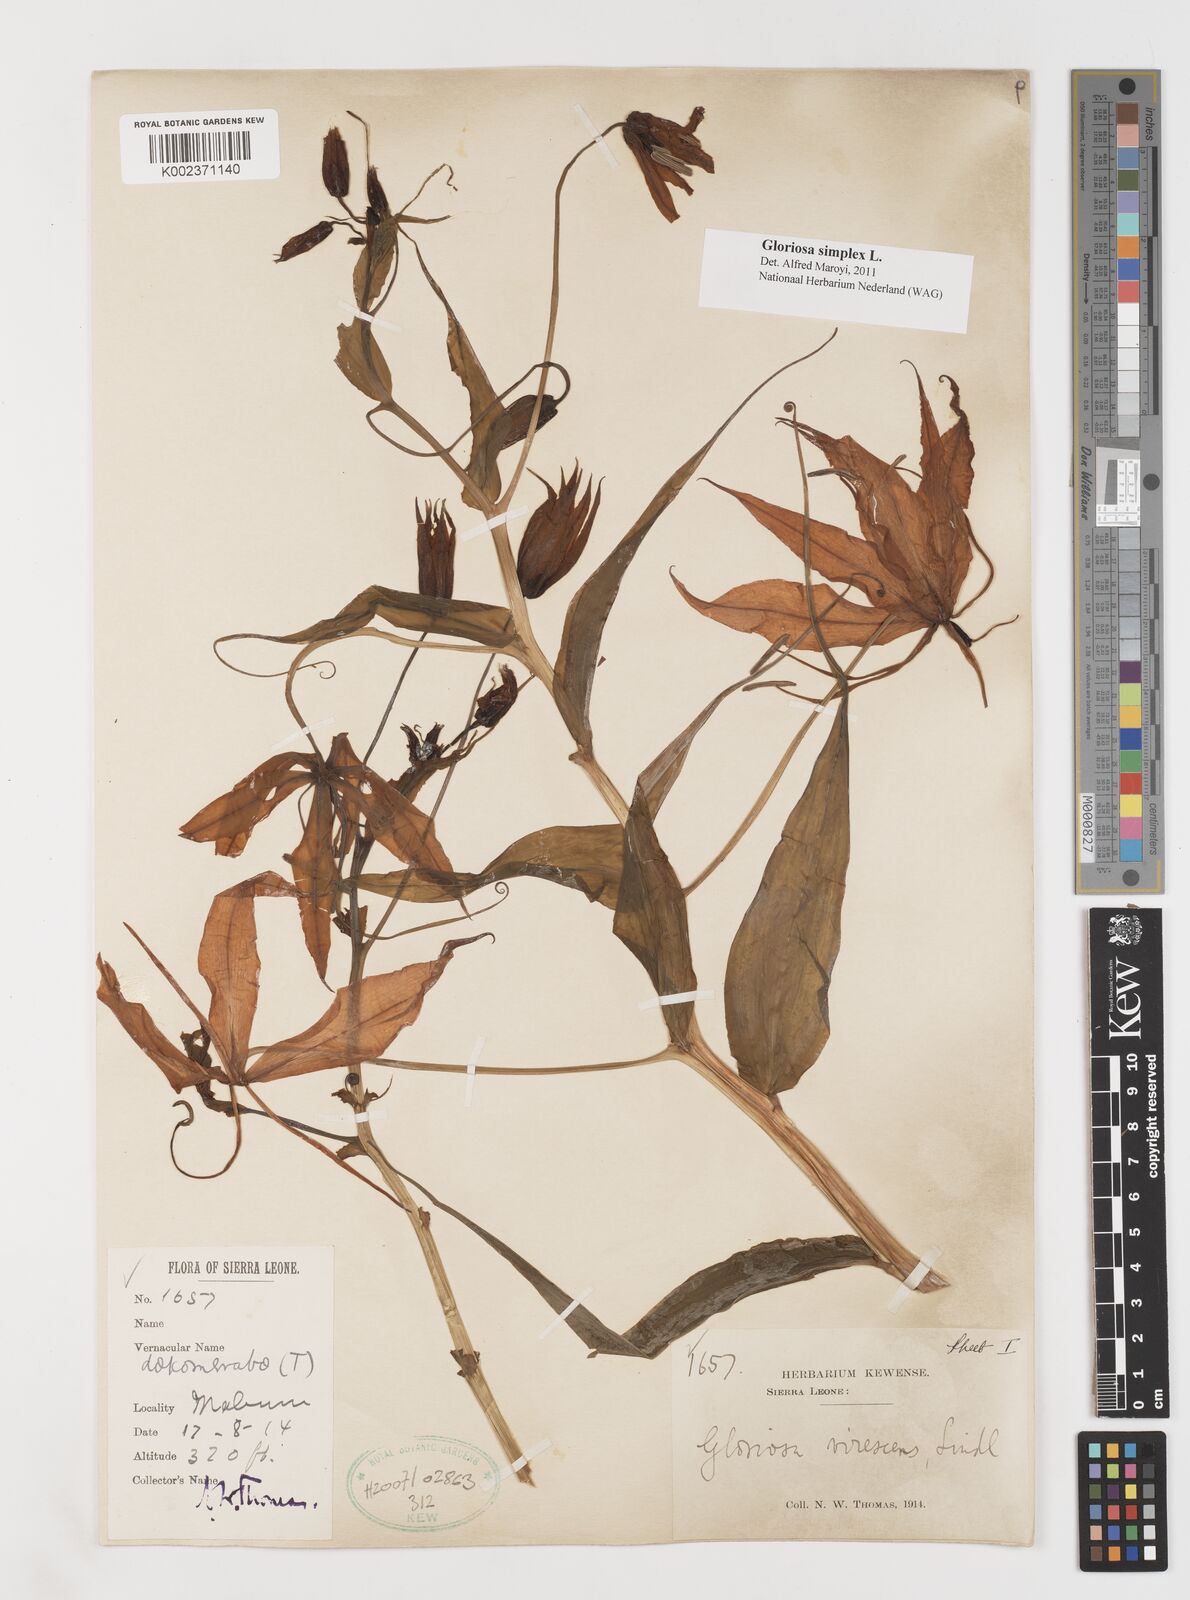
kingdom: Plantae
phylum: Tracheophyta
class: Liliopsida
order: Liliales
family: Colchicaceae
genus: Gloriosa
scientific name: Gloriosa simplex
